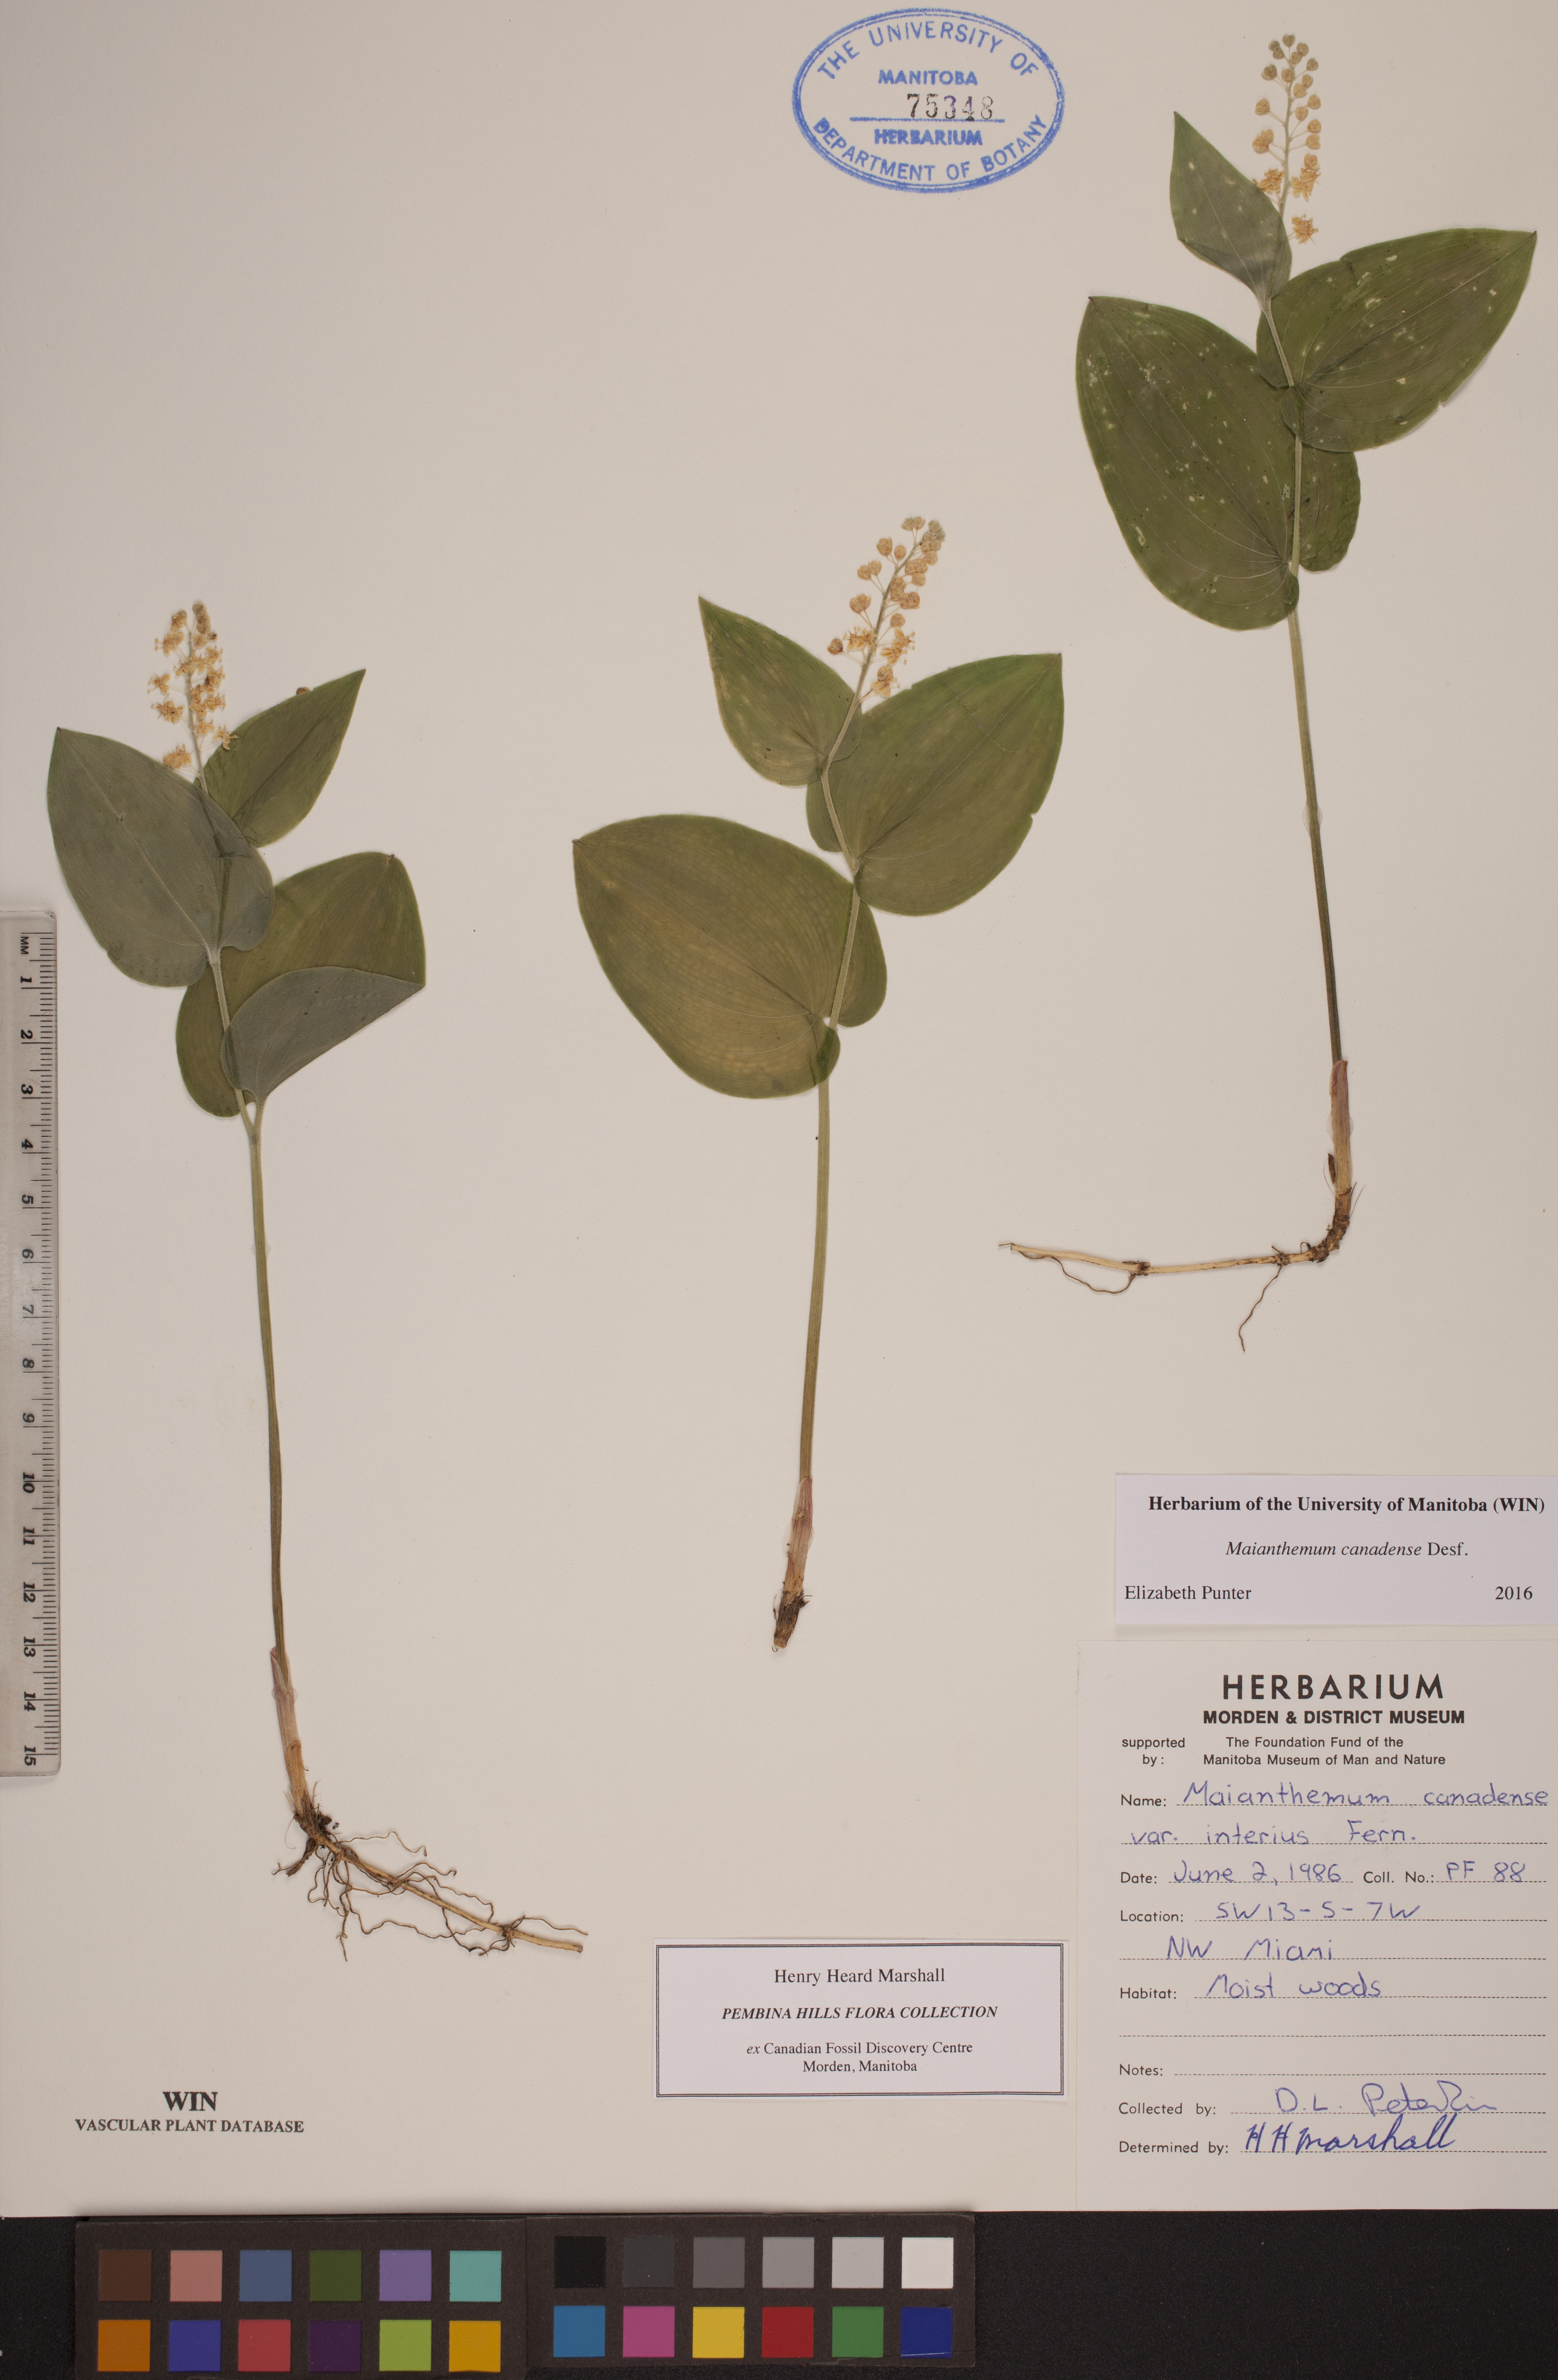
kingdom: Plantae
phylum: Tracheophyta
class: Liliopsida
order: Asparagales
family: Asparagaceae
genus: Maianthemum
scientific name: Maianthemum canadense
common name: False lily-of-the-valley
